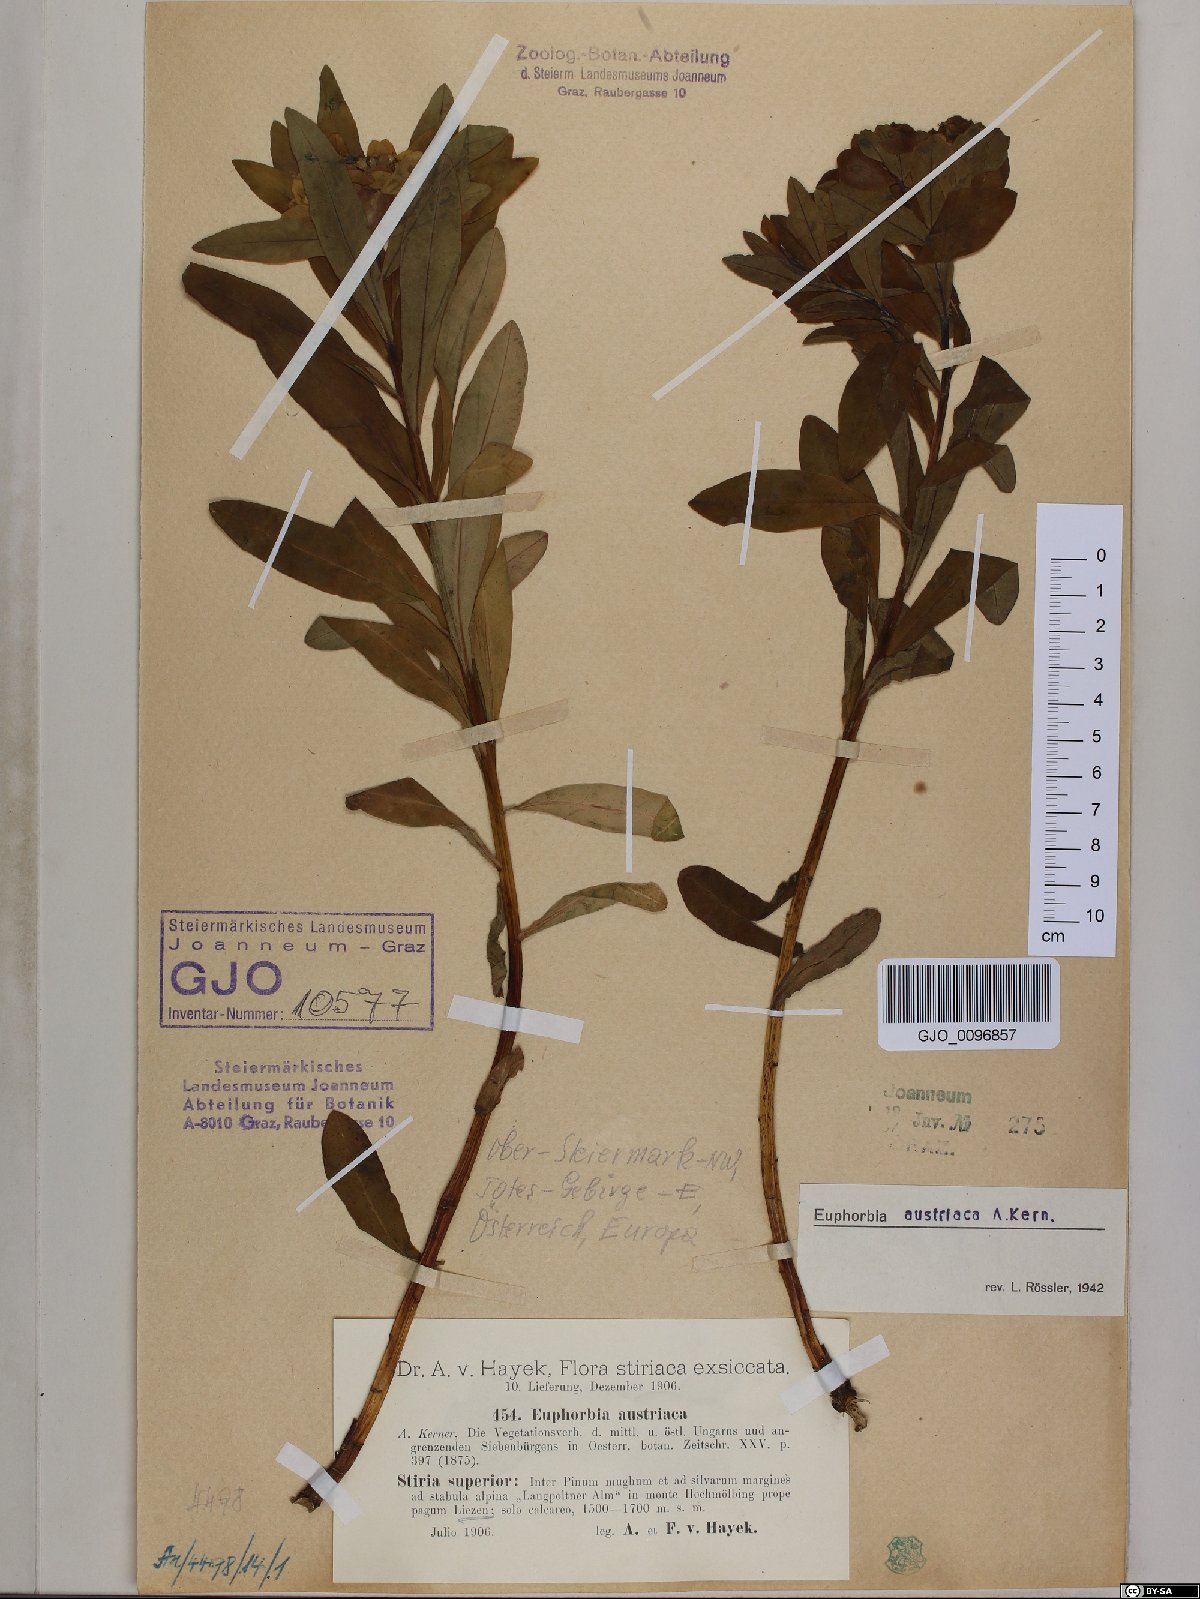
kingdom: Plantae
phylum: Tracheophyta
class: Magnoliopsida
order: Malpighiales
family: Euphorbiaceae
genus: Euphorbia
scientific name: Euphorbia austriaca
